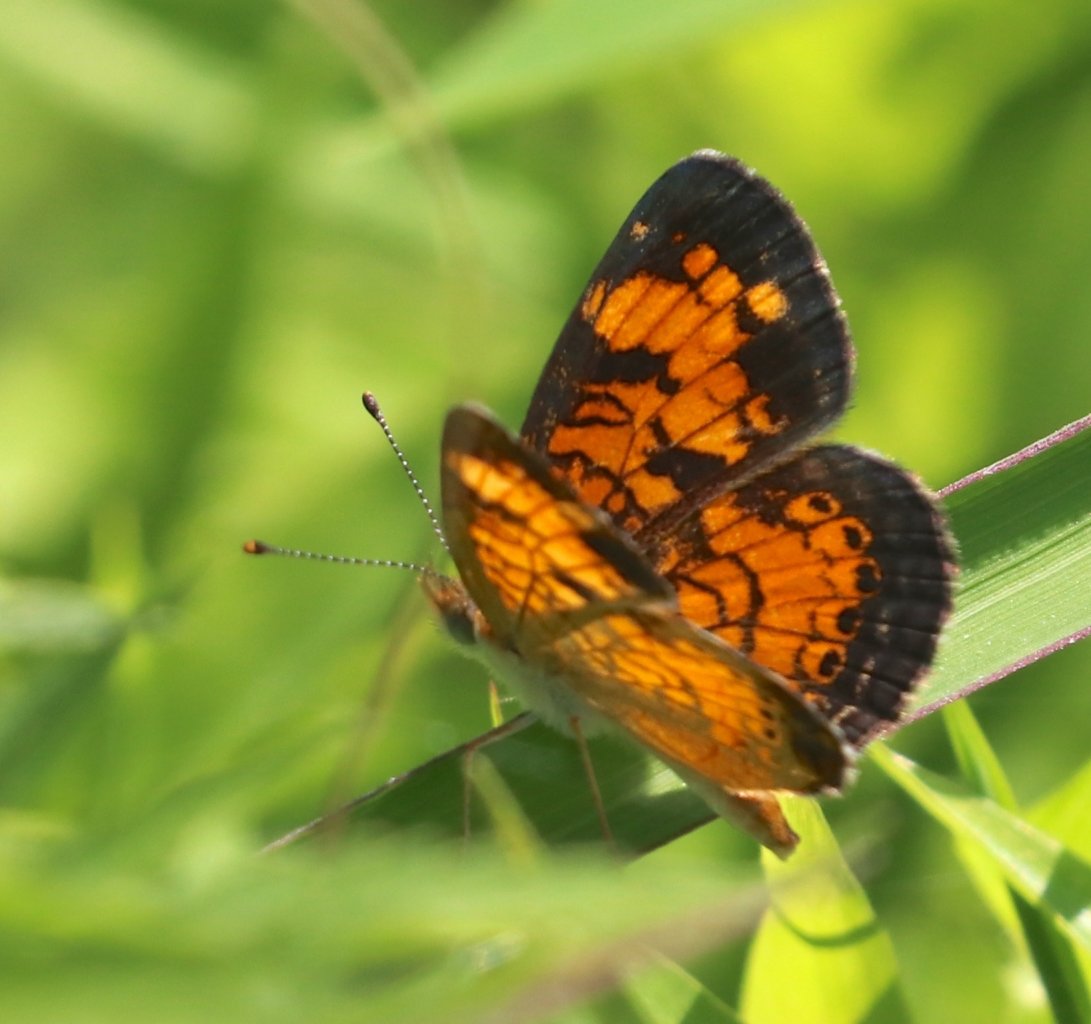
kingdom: Animalia
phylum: Arthropoda
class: Insecta
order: Lepidoptera
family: Nymphalidae
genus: Phyciodes
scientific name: Phyciodes tharos
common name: Pearl Crescent
